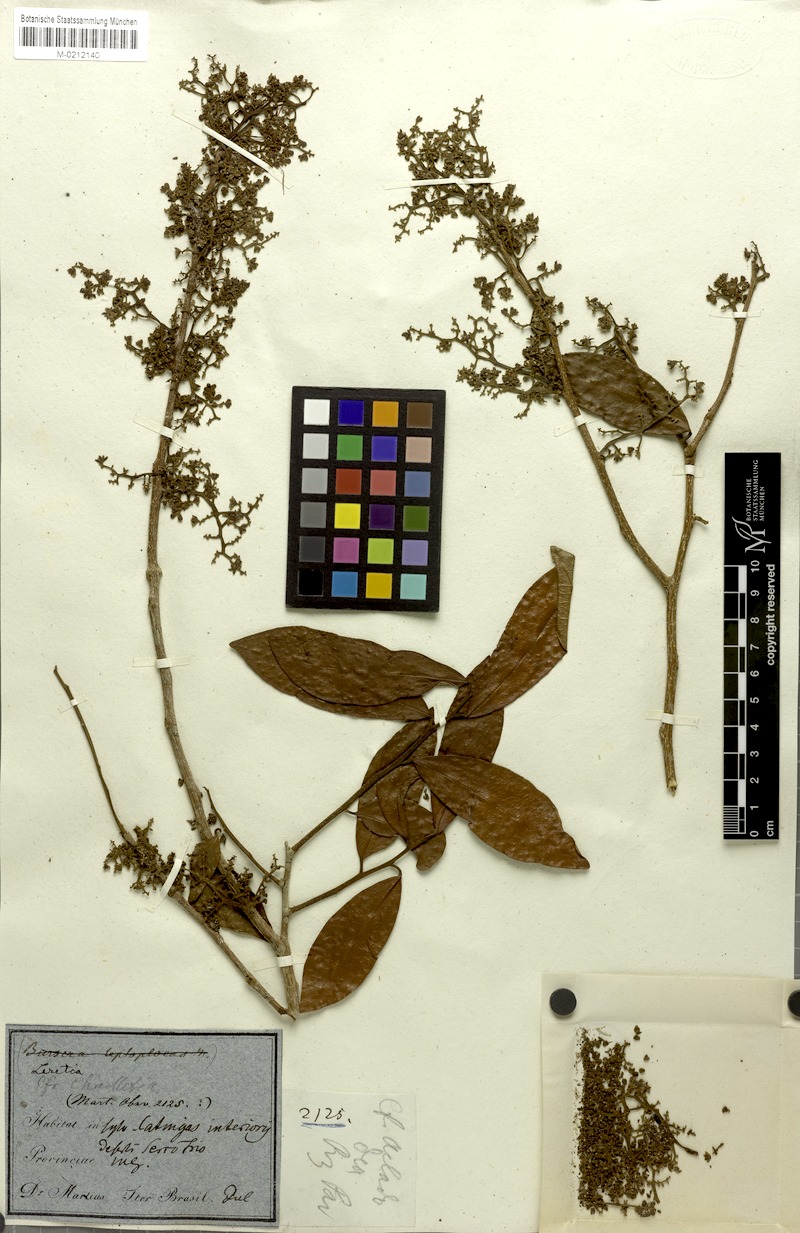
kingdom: Plantae
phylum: Tracheophyta
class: Magnoliopsida
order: Icacinales
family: Icacinaceae
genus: Leretia
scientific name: Leretia cordata
